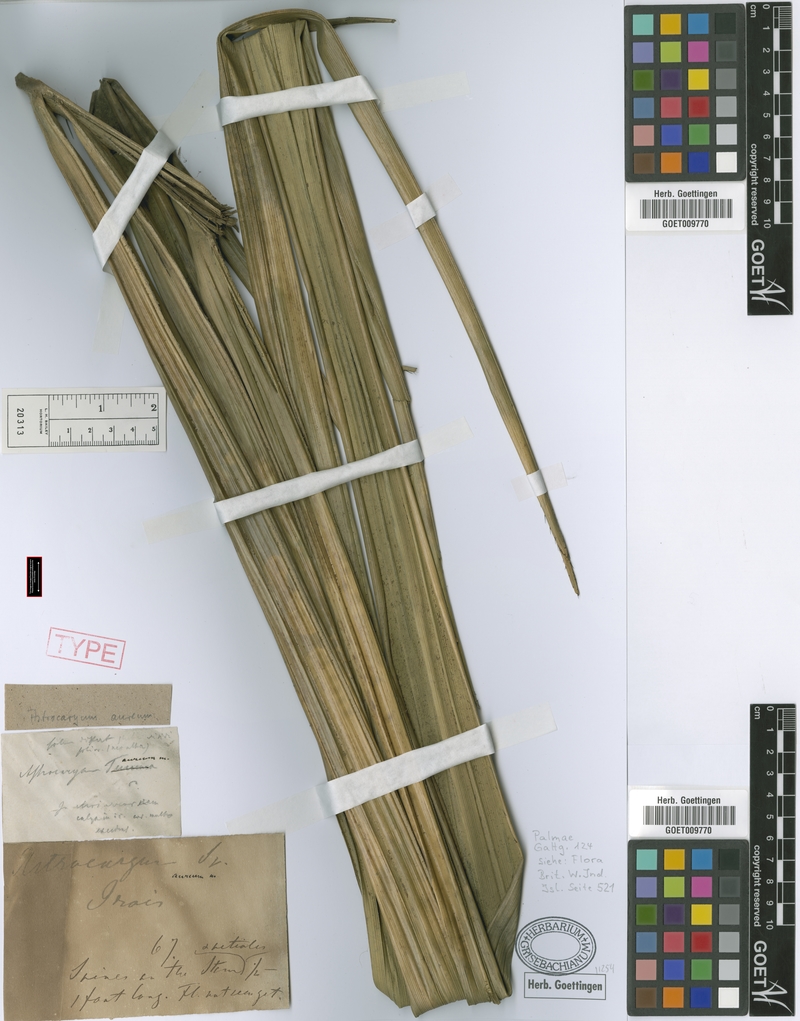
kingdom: Plantae
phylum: Tracheophyta
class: Liliopsida
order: Arecales
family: Arecaceae
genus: Astrocaryum
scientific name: Astrocaryum aculeatum
